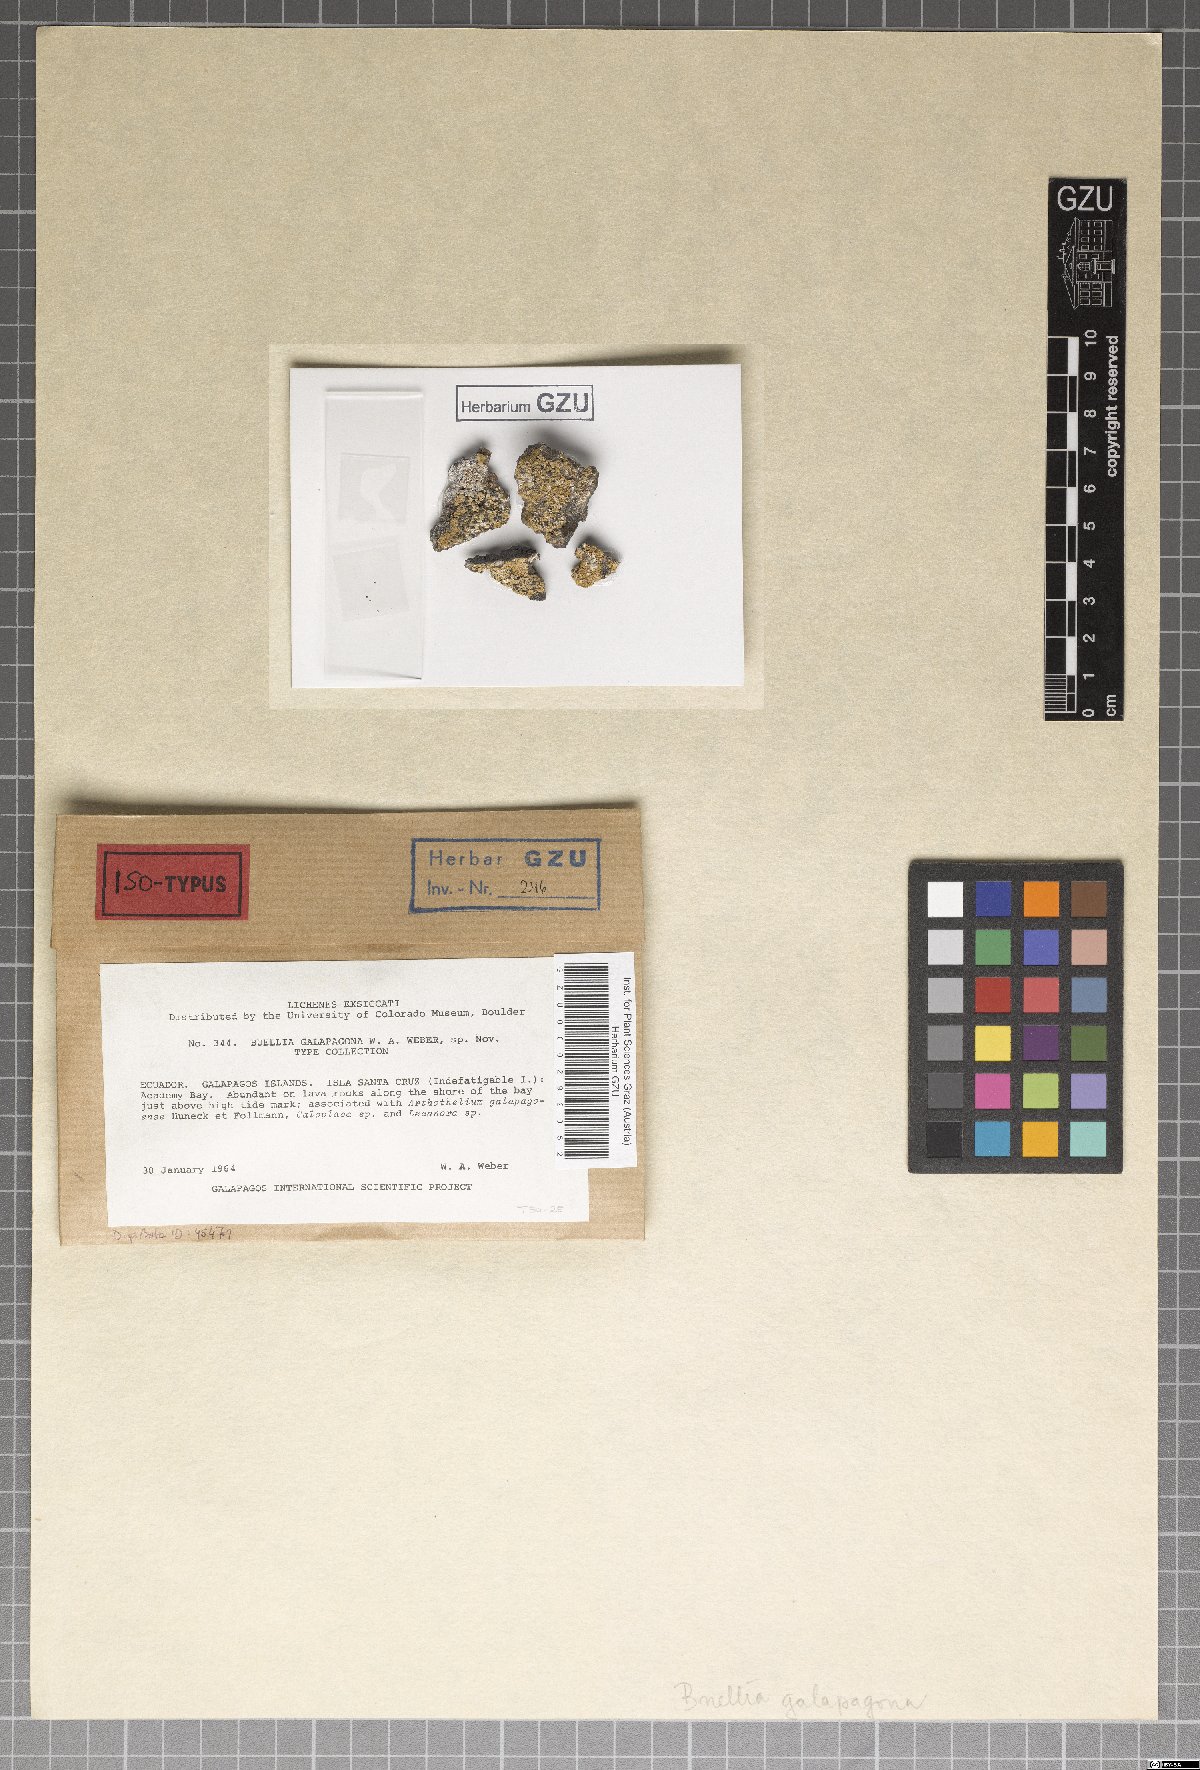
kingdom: Fungi
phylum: Ascomycota
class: Lecanoromycetes
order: Caliciales
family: Caliciaceae
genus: Buellia
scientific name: Buellia galapagona
